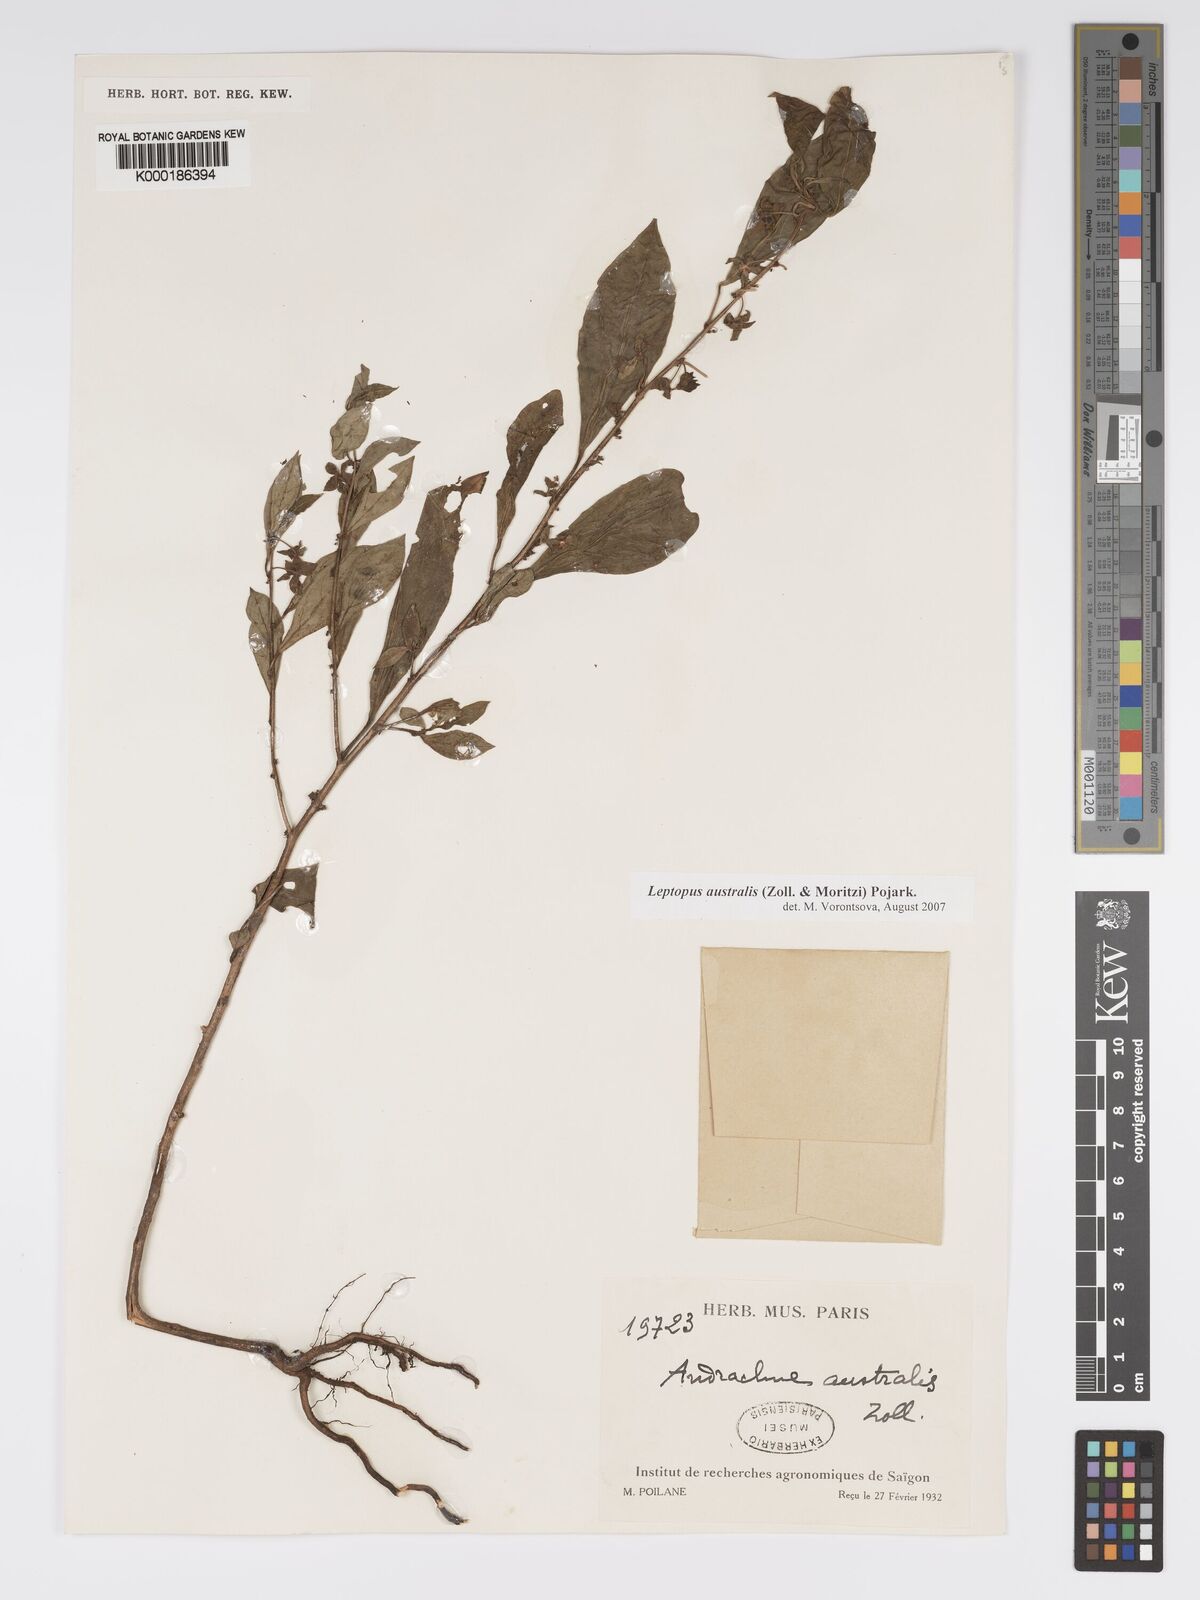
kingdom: Plantae
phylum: Tracheophyta
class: Magnoliopsida
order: Malpighiales
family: Phyllanthaceae
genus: Andrachne
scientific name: Andrachne
